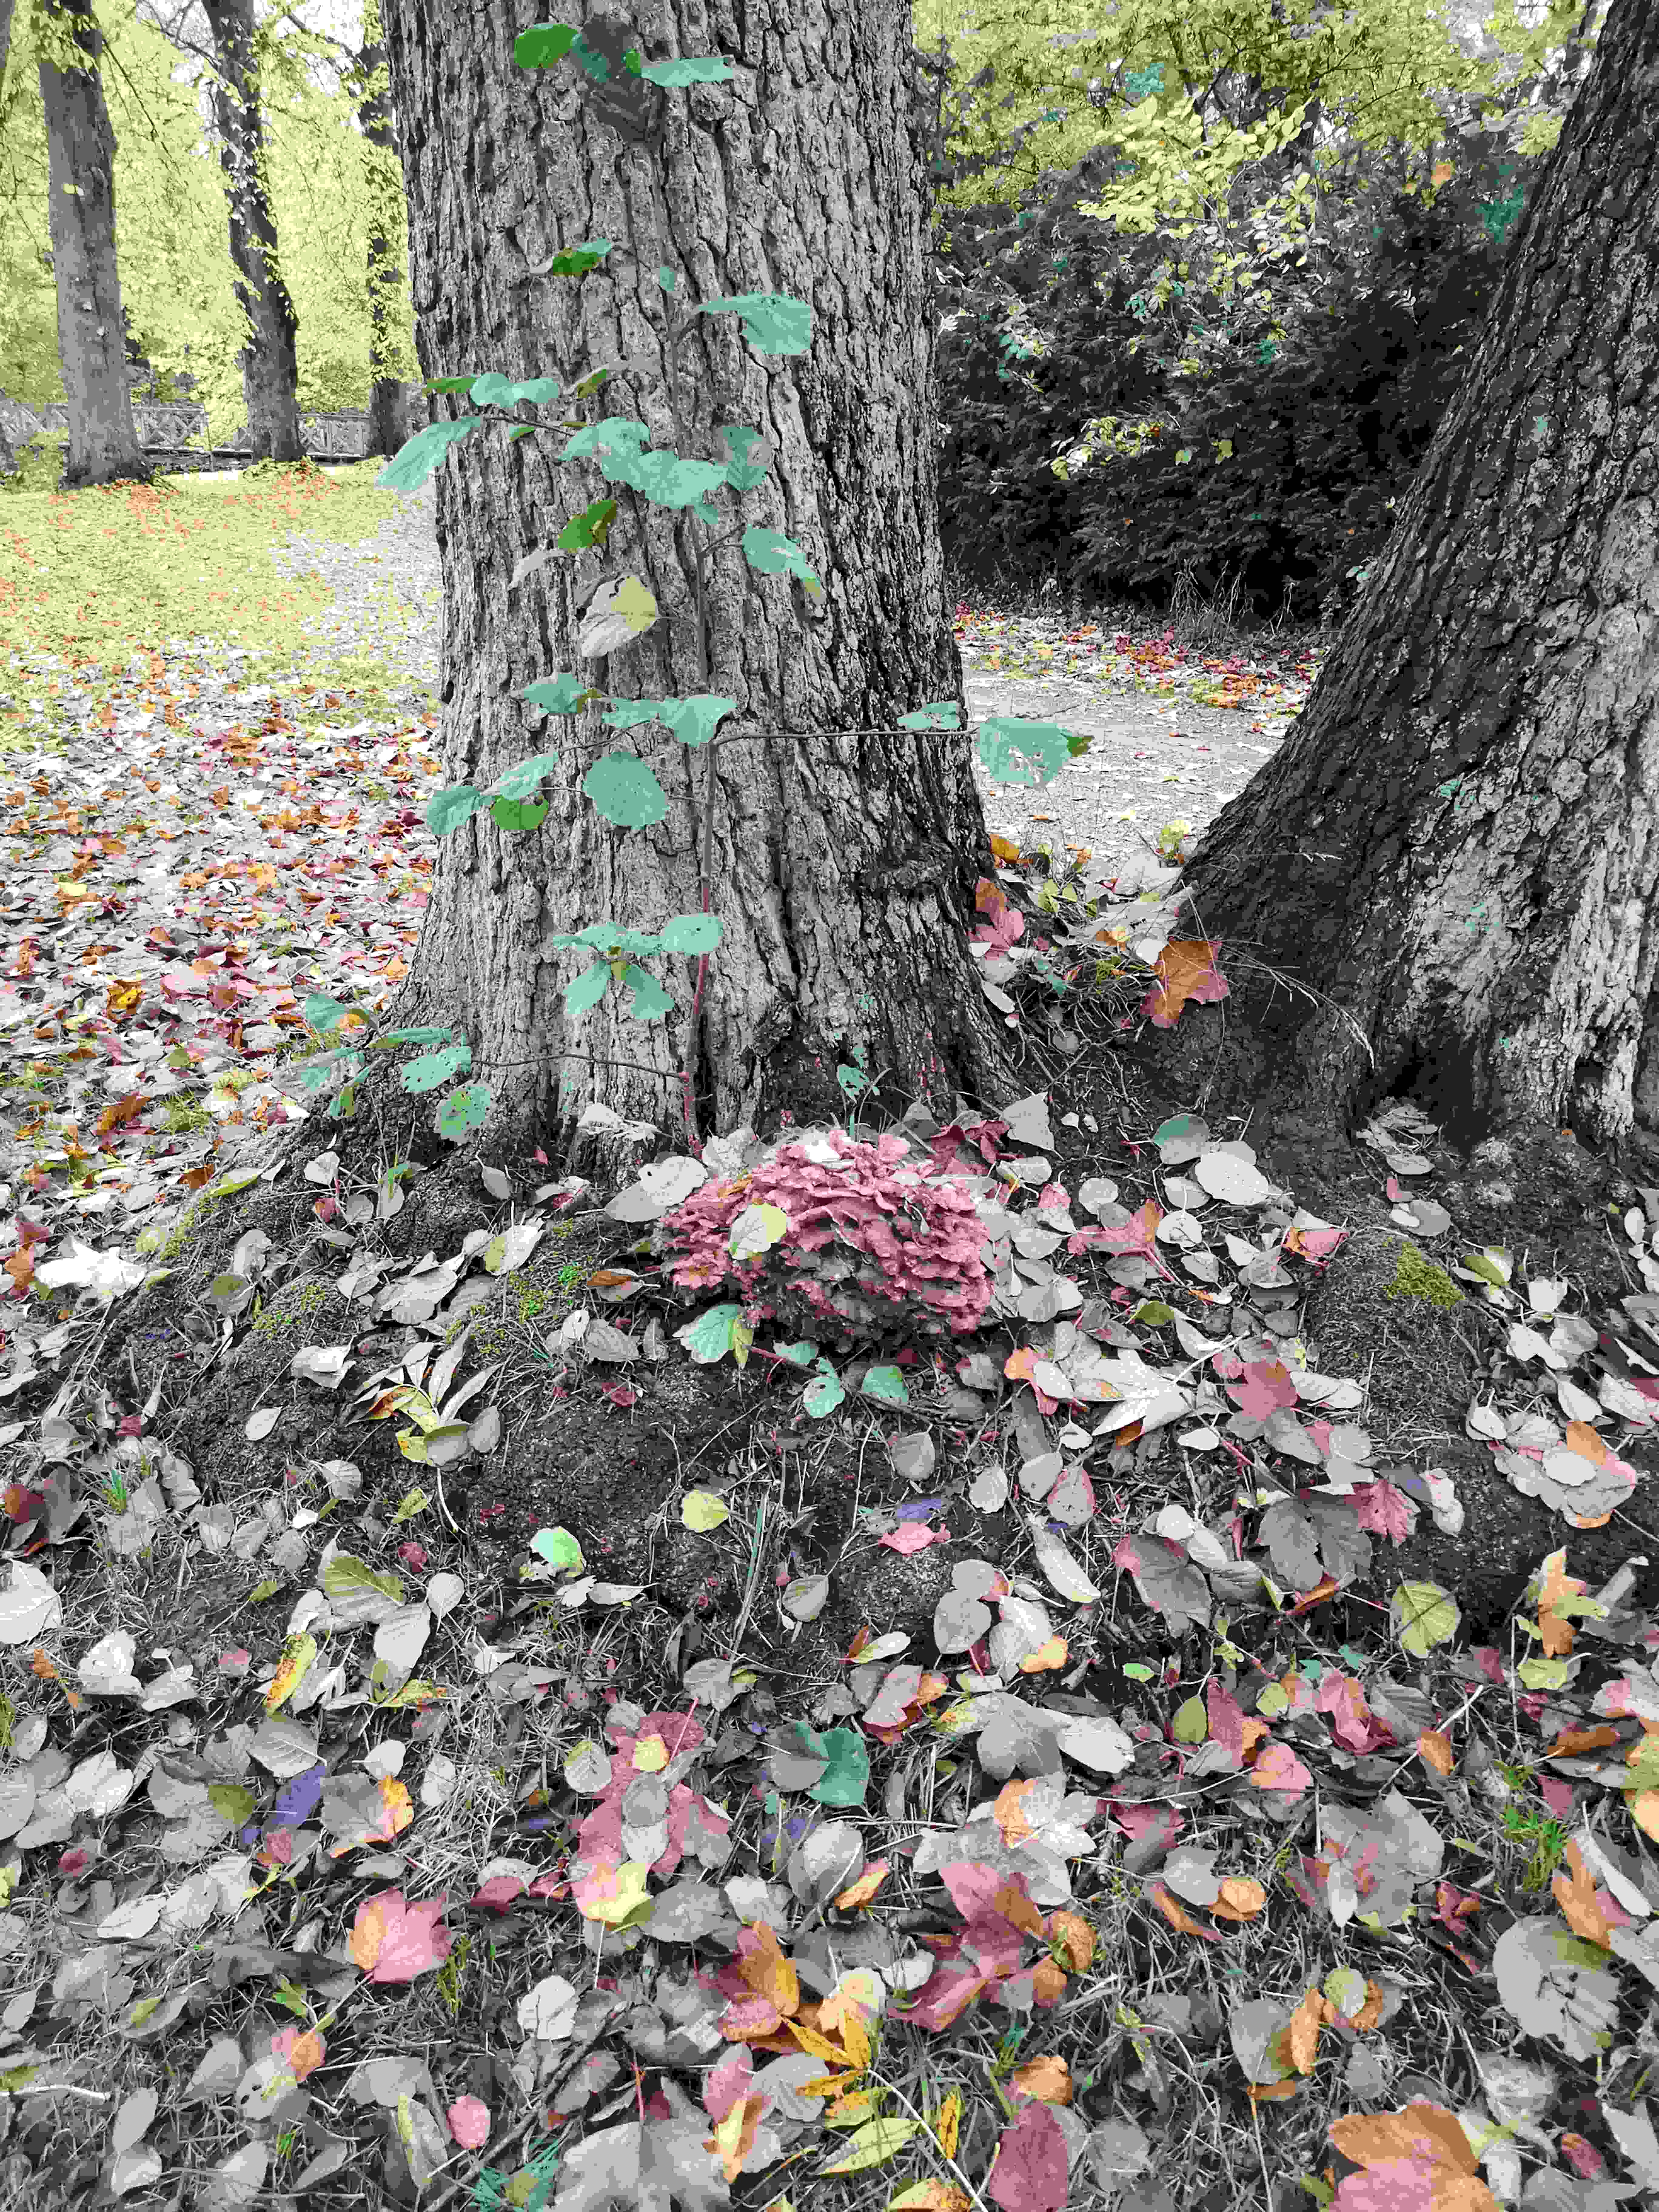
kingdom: Fungi
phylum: Basidiomycota
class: Agaricomycetes
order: Polyporales
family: Grifolaceae
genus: Grifola
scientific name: Grifola frondosa
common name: tueporesvamp
